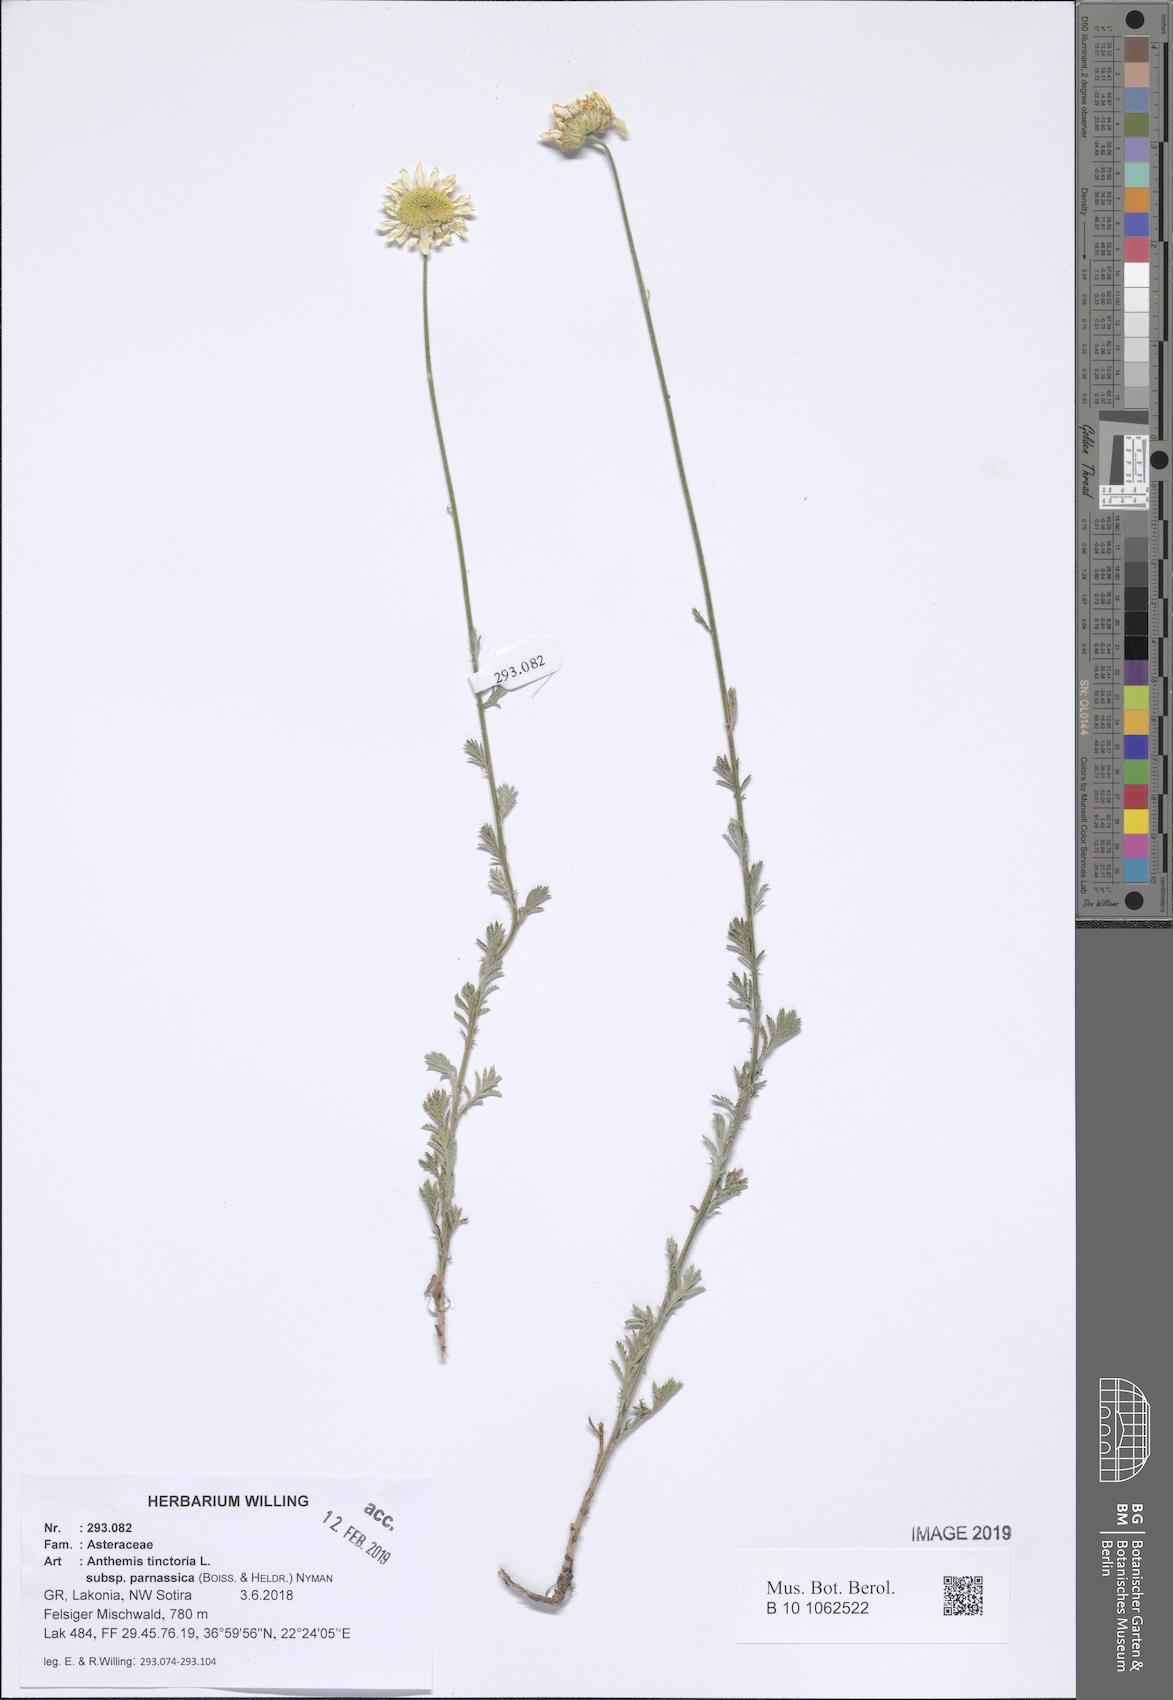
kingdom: Plantae
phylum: Tracheophyta
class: Magnoliopsida
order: Asterales
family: Asteraceae
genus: Cota
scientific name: Cota tinctoria
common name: Golden chamomile
